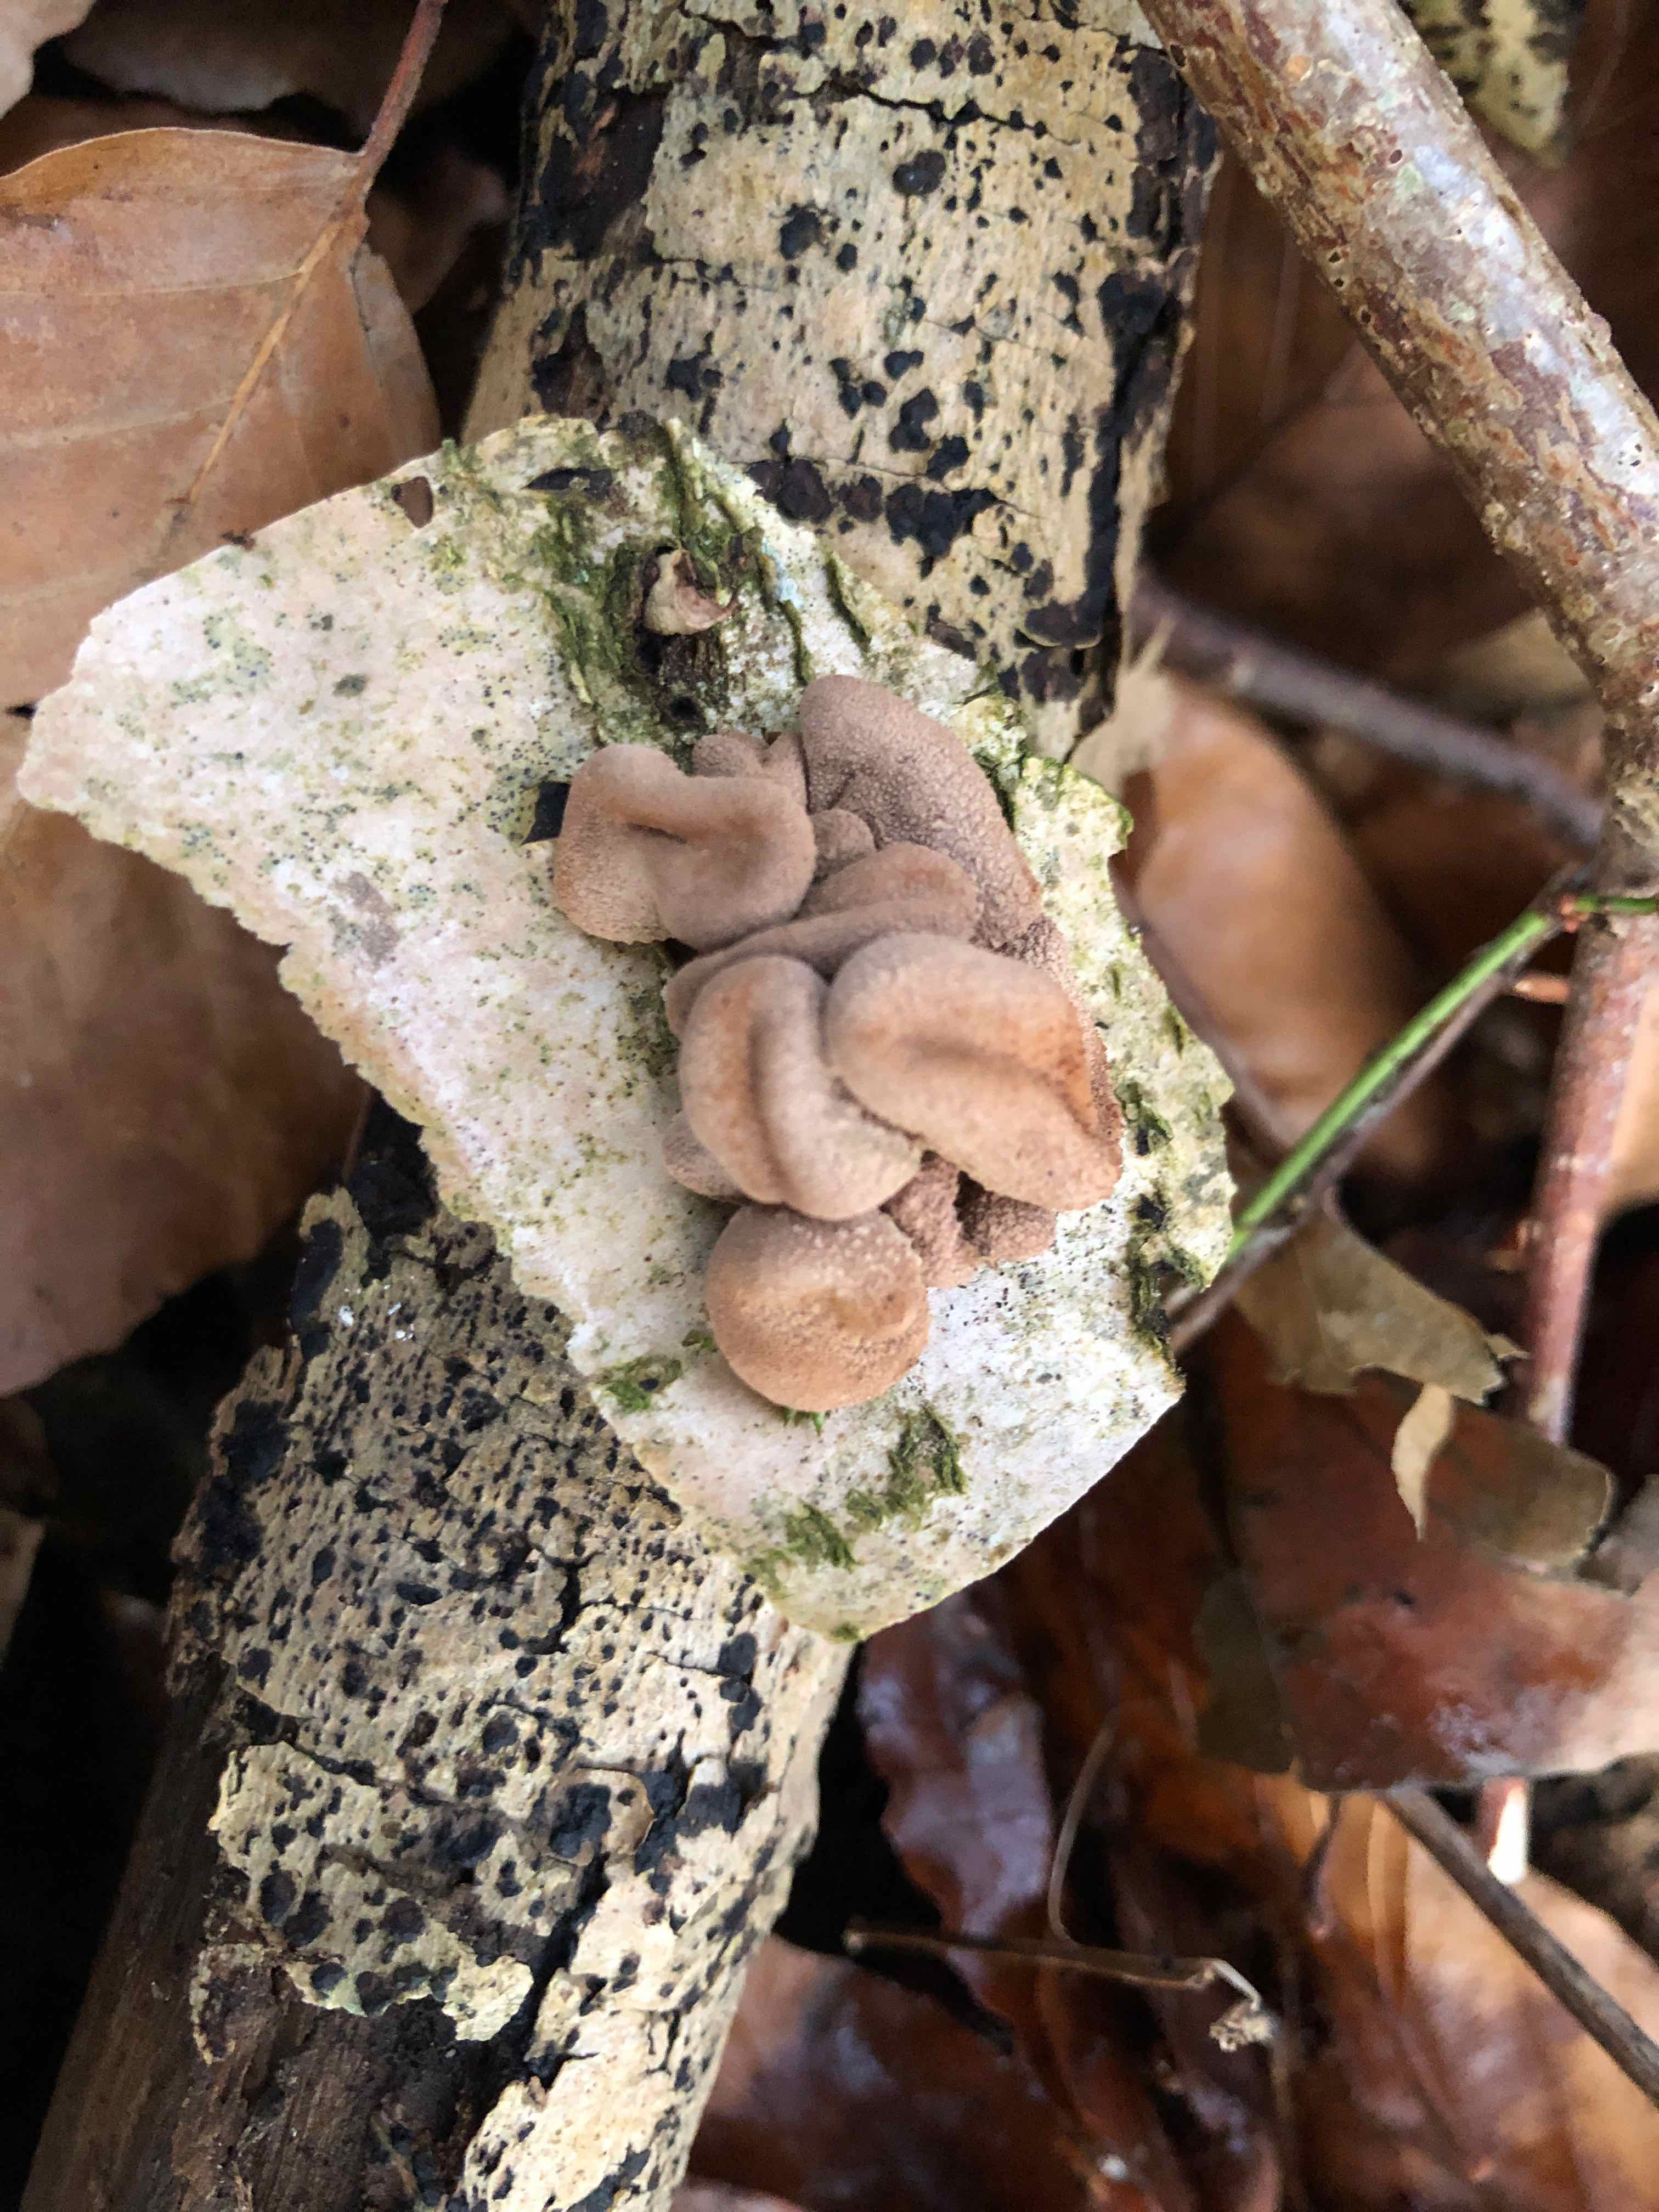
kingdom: Fungi
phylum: Ascomycota
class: Leotiomycetes
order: Helotiales
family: Cenangiaceae
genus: Encoelia
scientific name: Encoelia furfuracea
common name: hassel-læderskive
